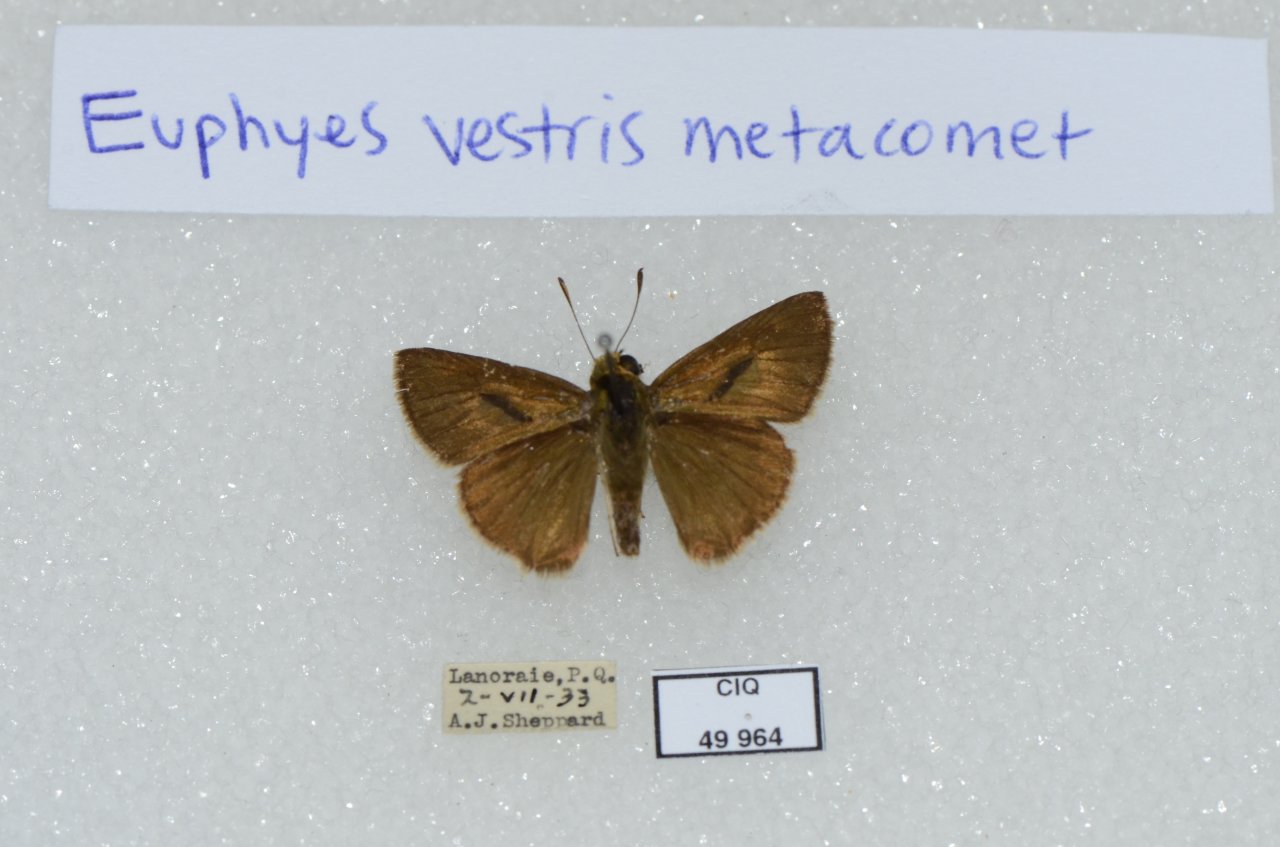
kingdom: Animalia
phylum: Arthropoda
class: Insecta
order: Lepidoptera
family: Hesperiidae
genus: Euphyes
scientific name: Euphyes vestris
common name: Dun Skipper
